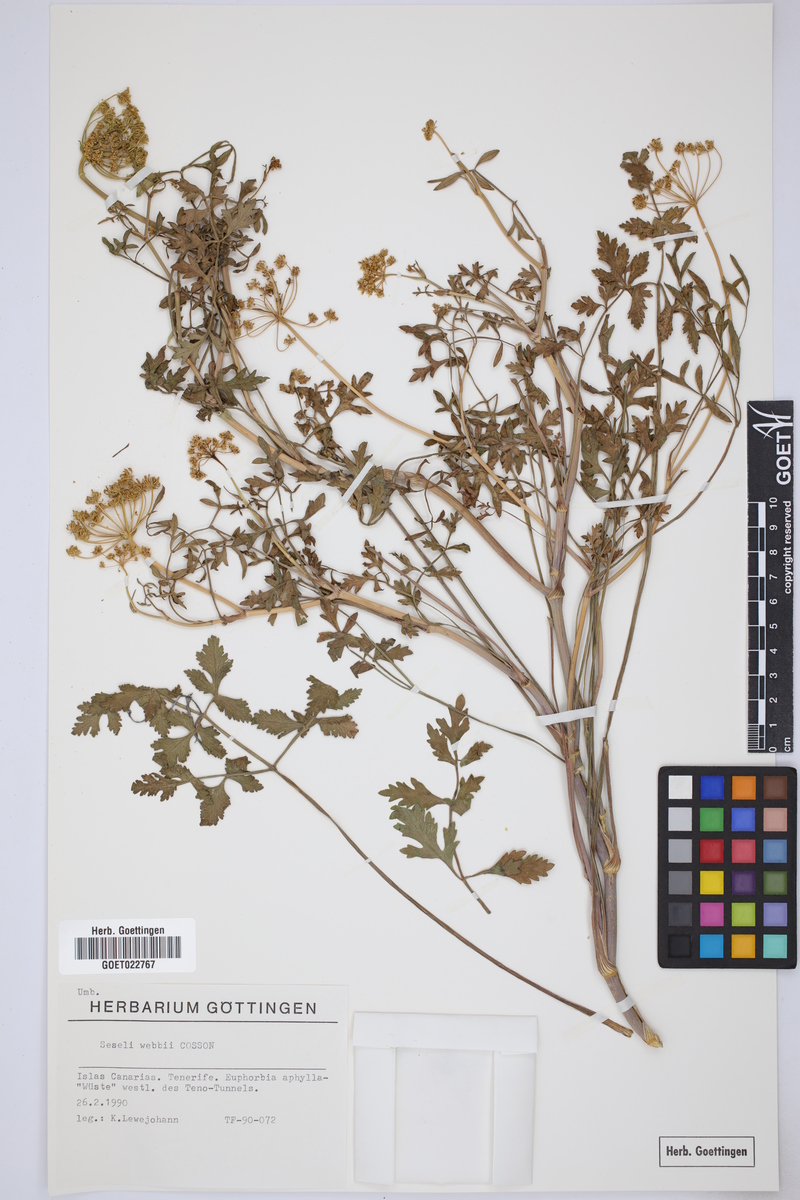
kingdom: Plantae
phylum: Tracheophyta
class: Magnoliopsida
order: Apiales
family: Apiaceae
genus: Rutheopsis
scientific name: Rutheopsis tortuosa
